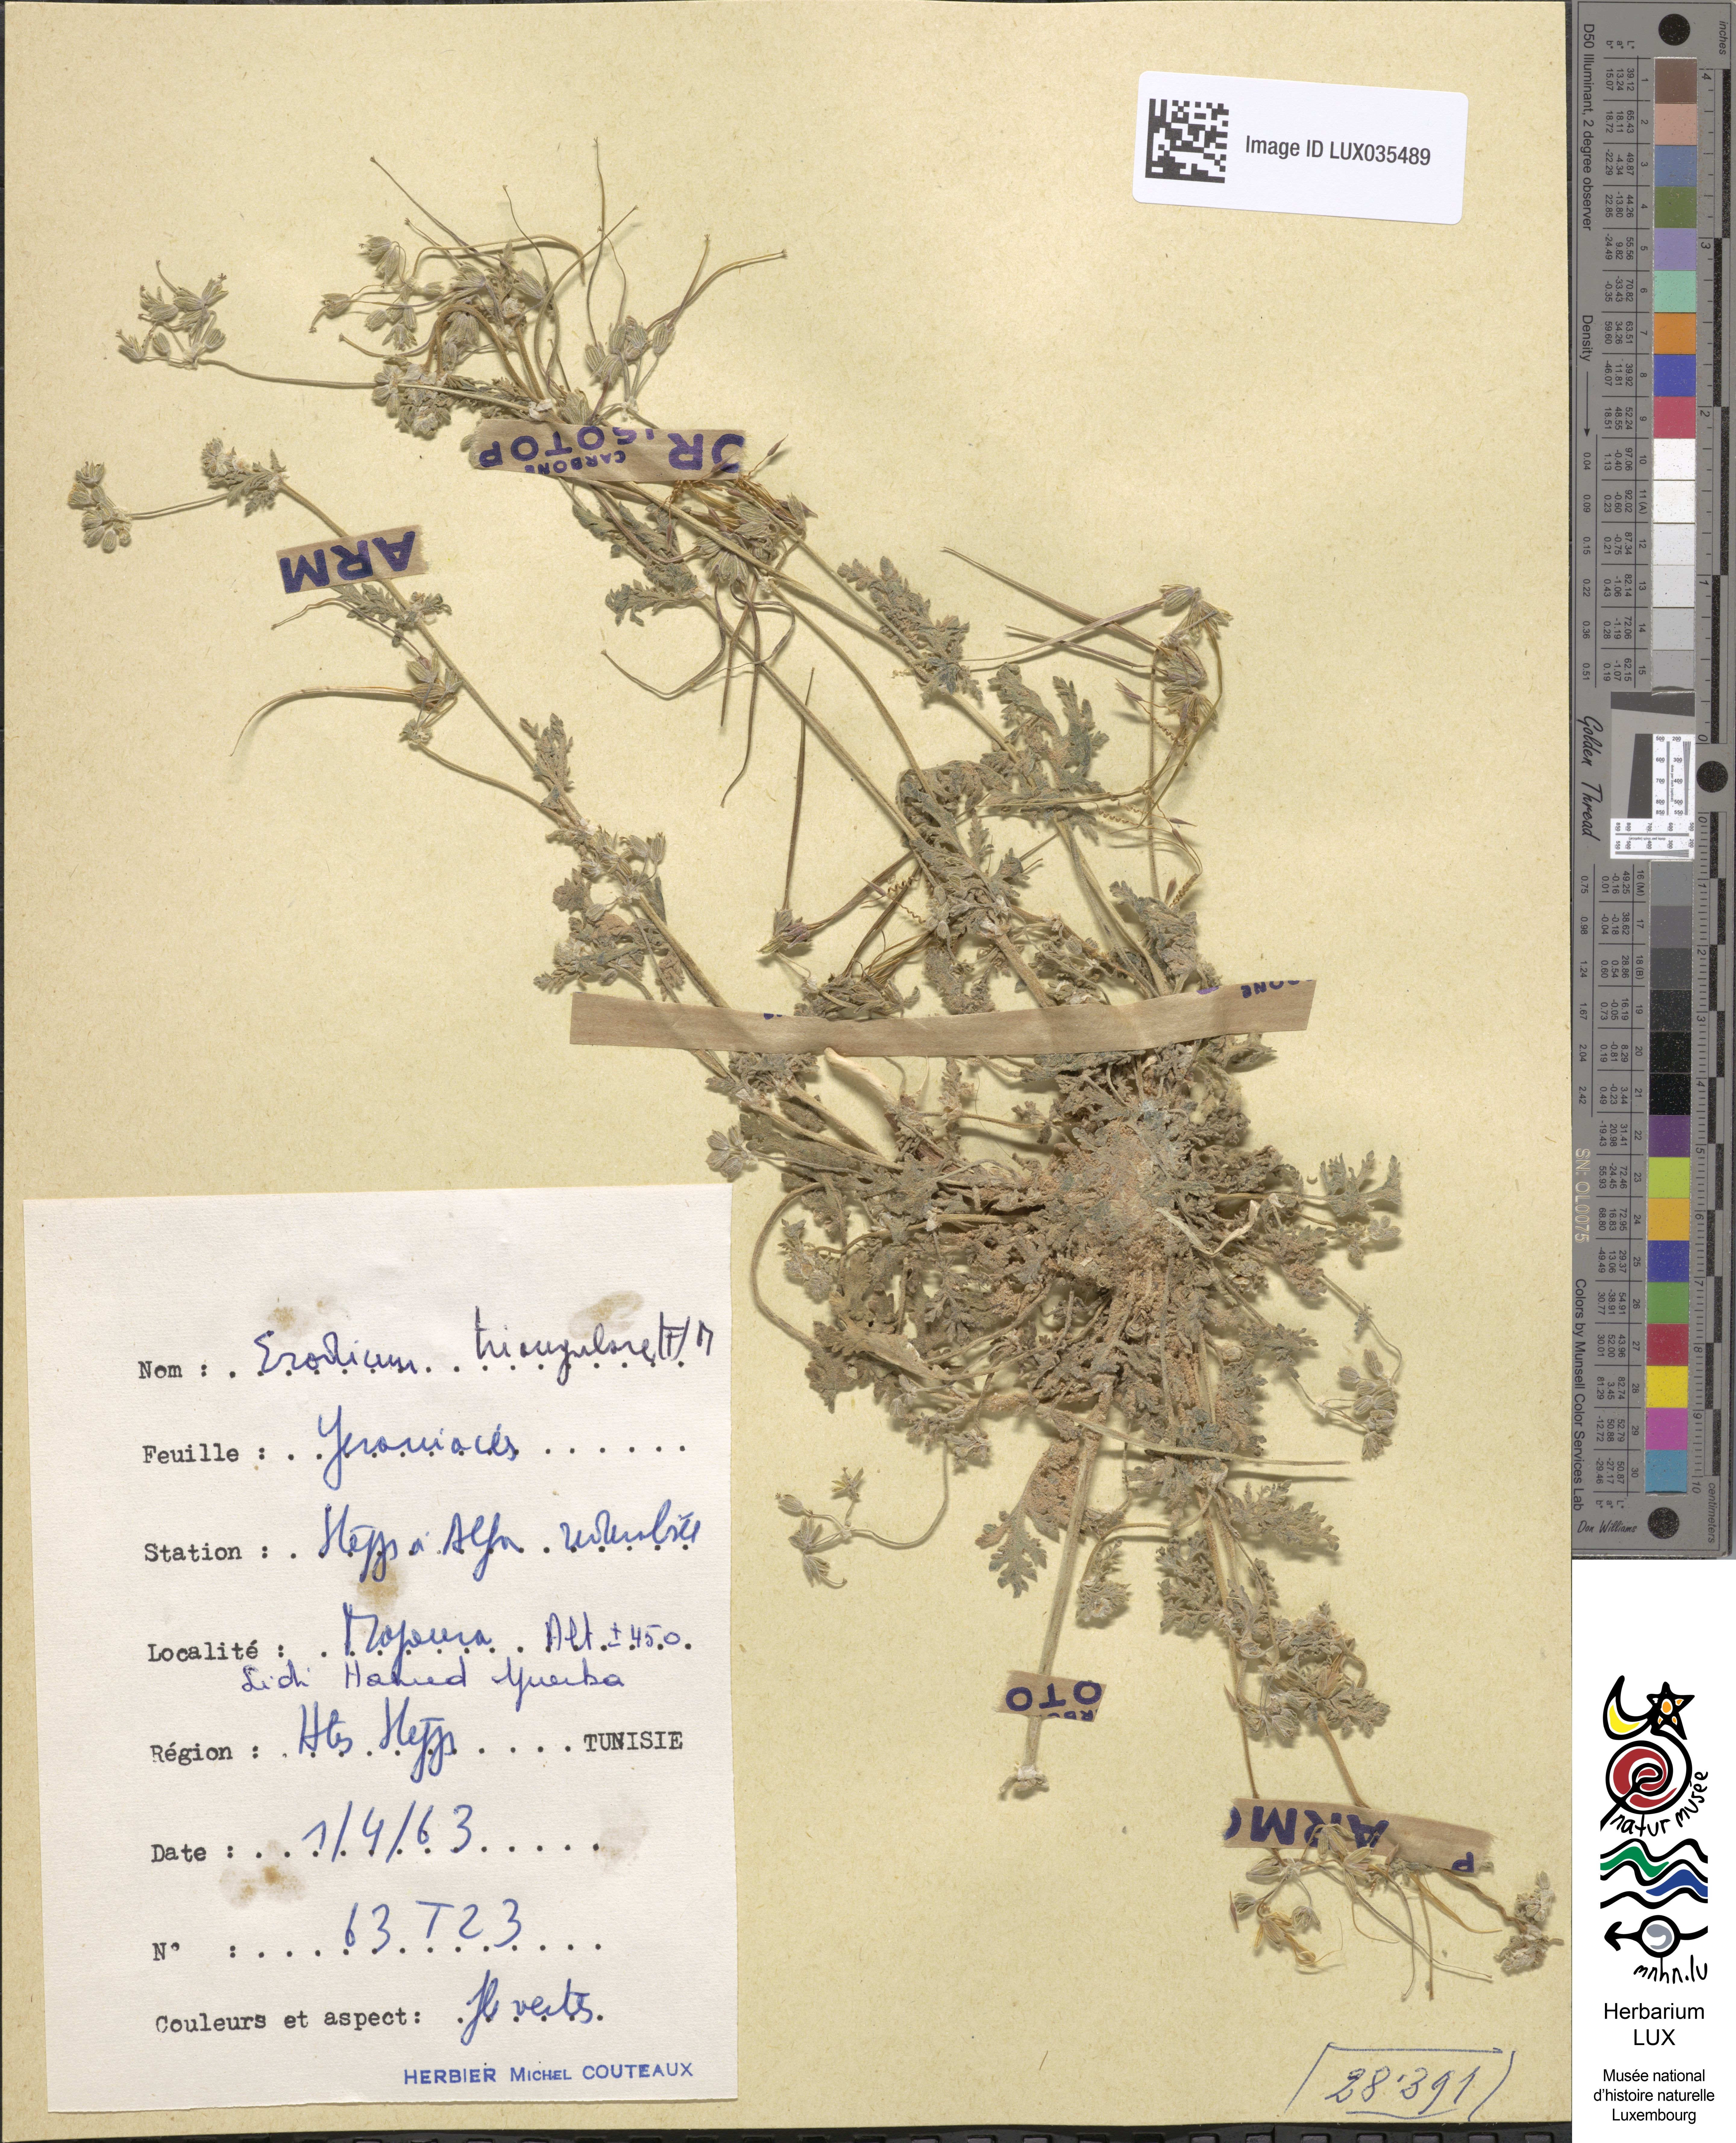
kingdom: Plantae
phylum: Tracheophyta
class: Magnoliopsida
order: Geraniales
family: Geraniaceae
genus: Erodium
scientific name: Erodium laciniatum
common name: Cutleaf stork's bill
